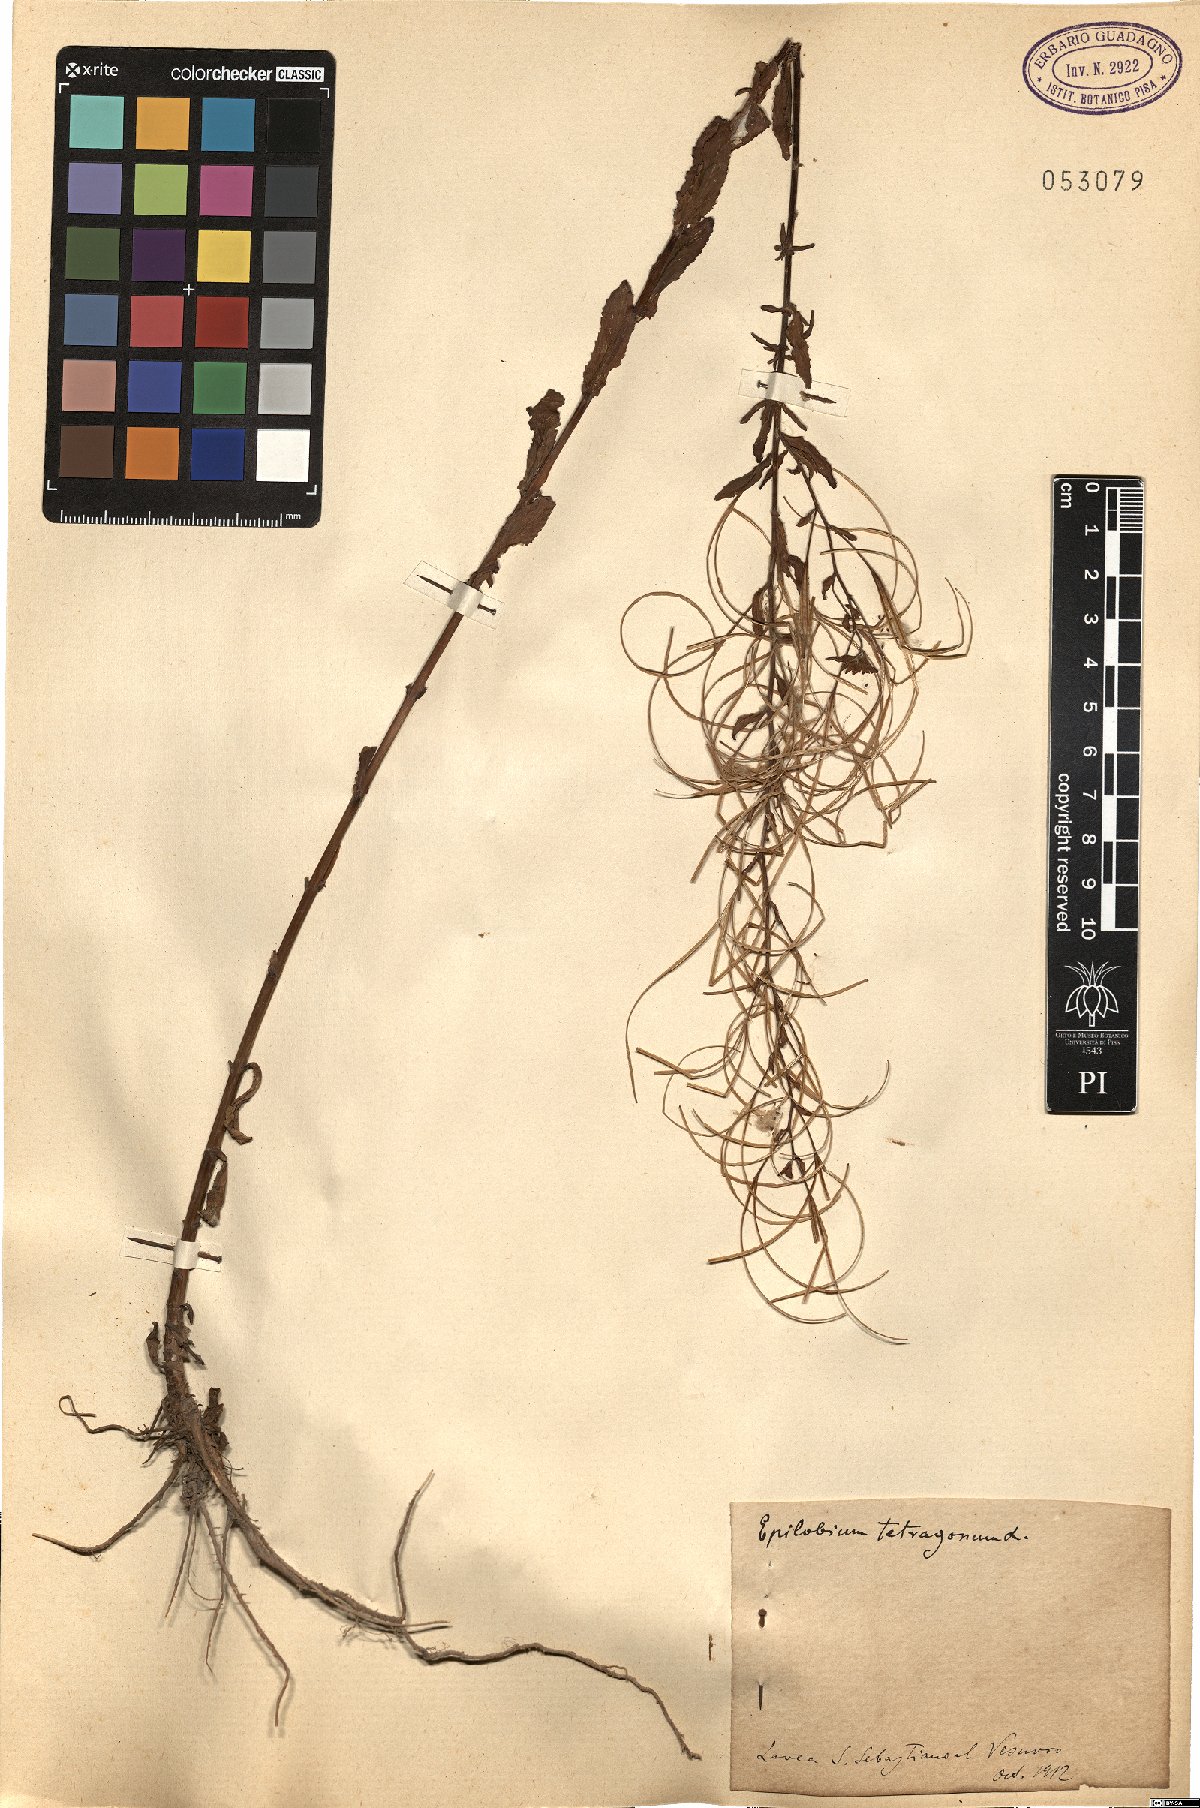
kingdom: Plantae
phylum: Tracheophyta
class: Magnoliopsida
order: Myrtales
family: Onagraceae
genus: Epilobium
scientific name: Epilobium tetragonum
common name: Square-stemmed willowherb
